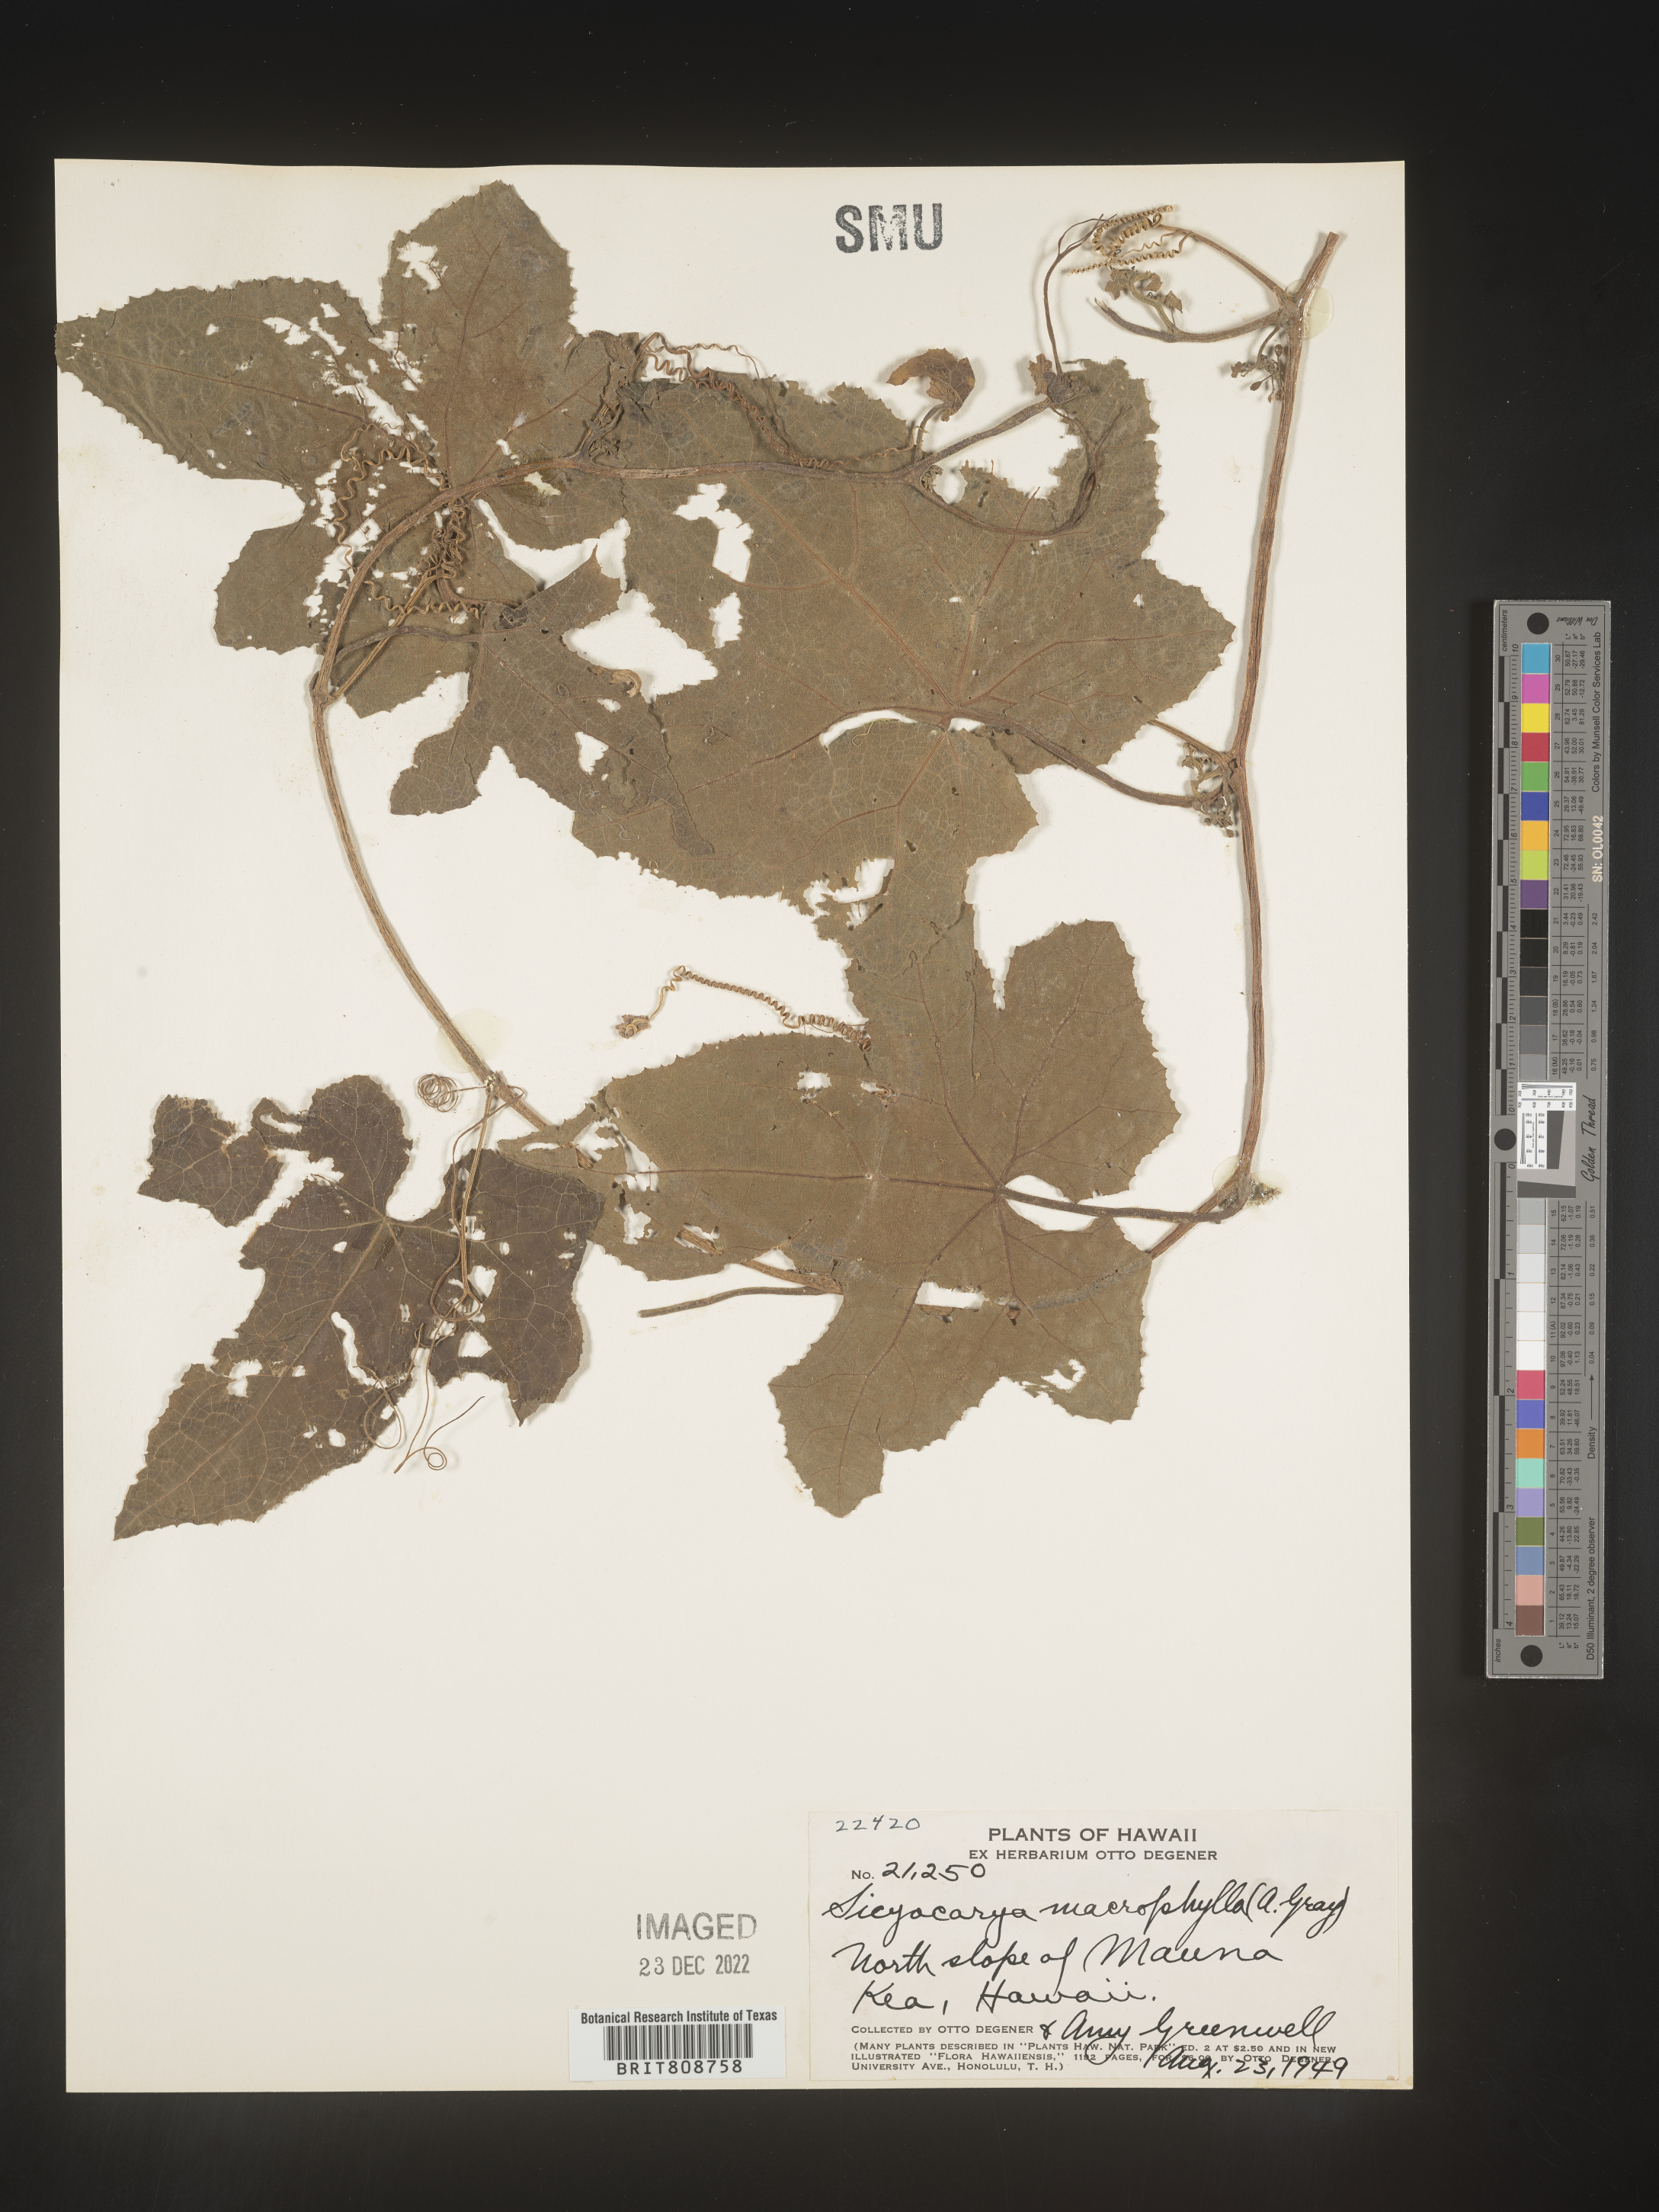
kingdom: Plantae
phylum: Tracheophyta
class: Magnoliopsida
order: Cucurbitales
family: Cucurbitaceae
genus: Sicyos
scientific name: Sicyos
